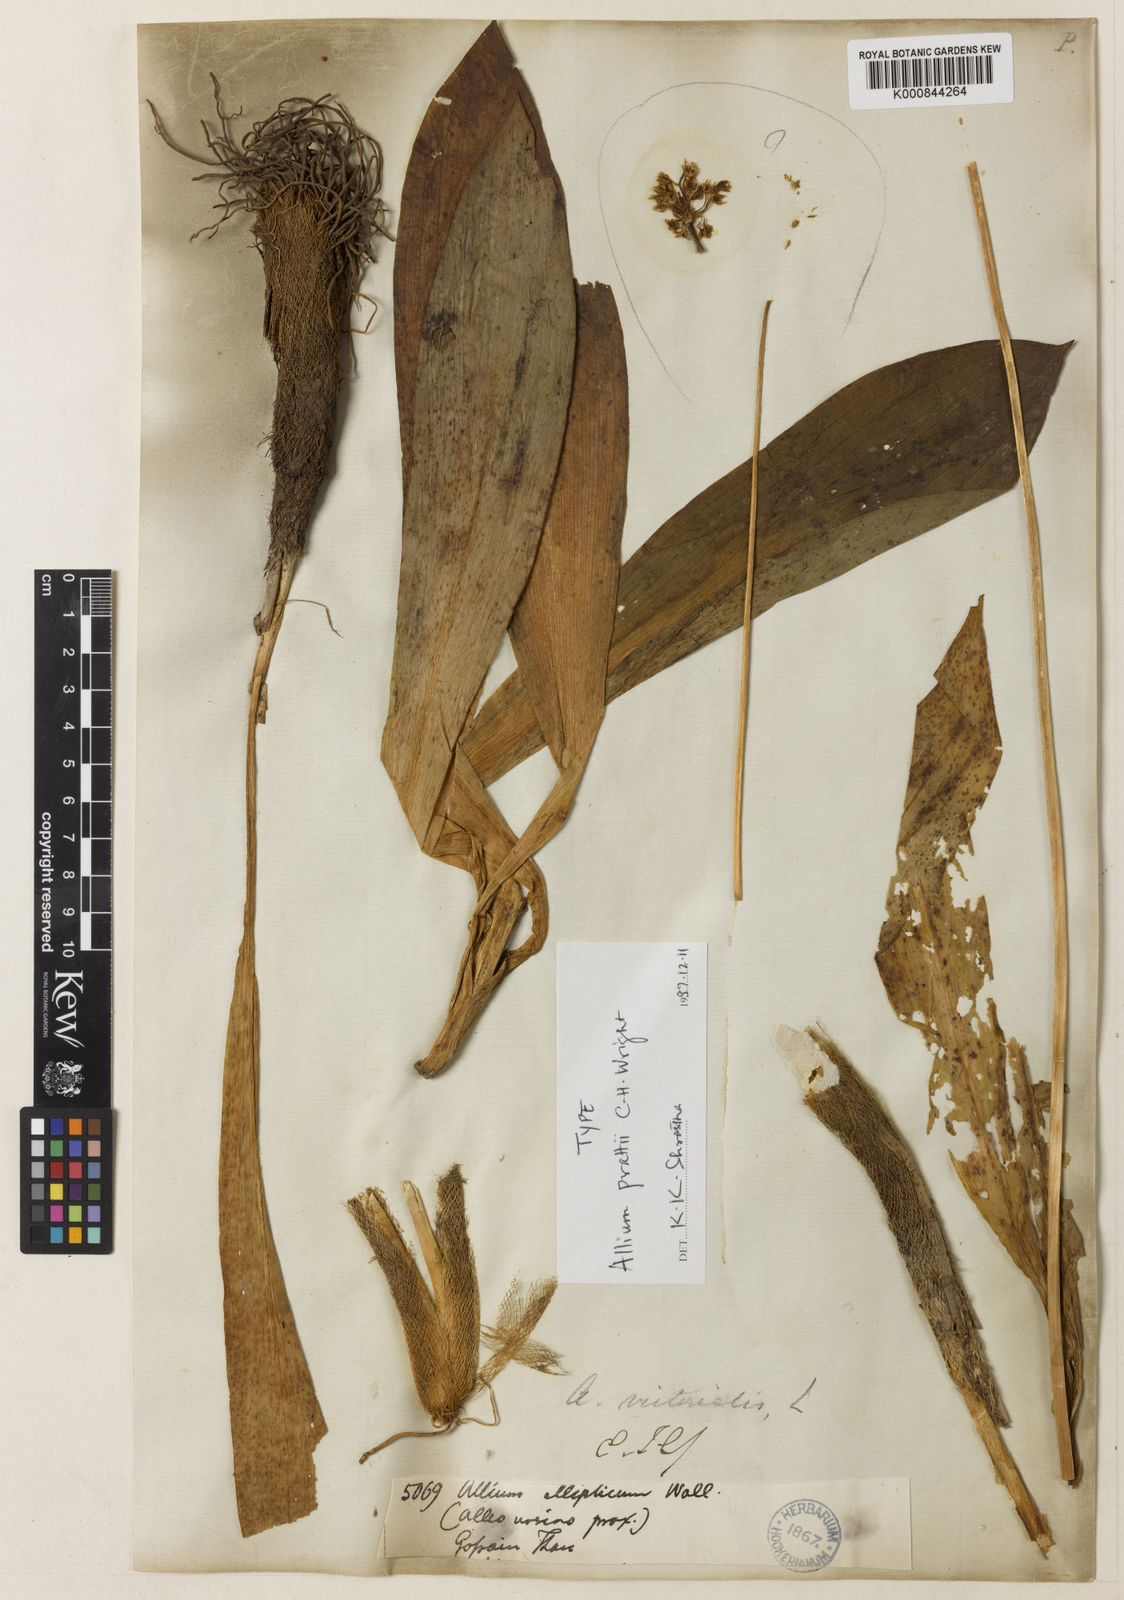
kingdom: Plantae
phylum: Tracheophyta
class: Liliopsida
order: Asparagales
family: Amaryllidaceae
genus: Allium
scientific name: Allium victorialis
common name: Alpine leek
